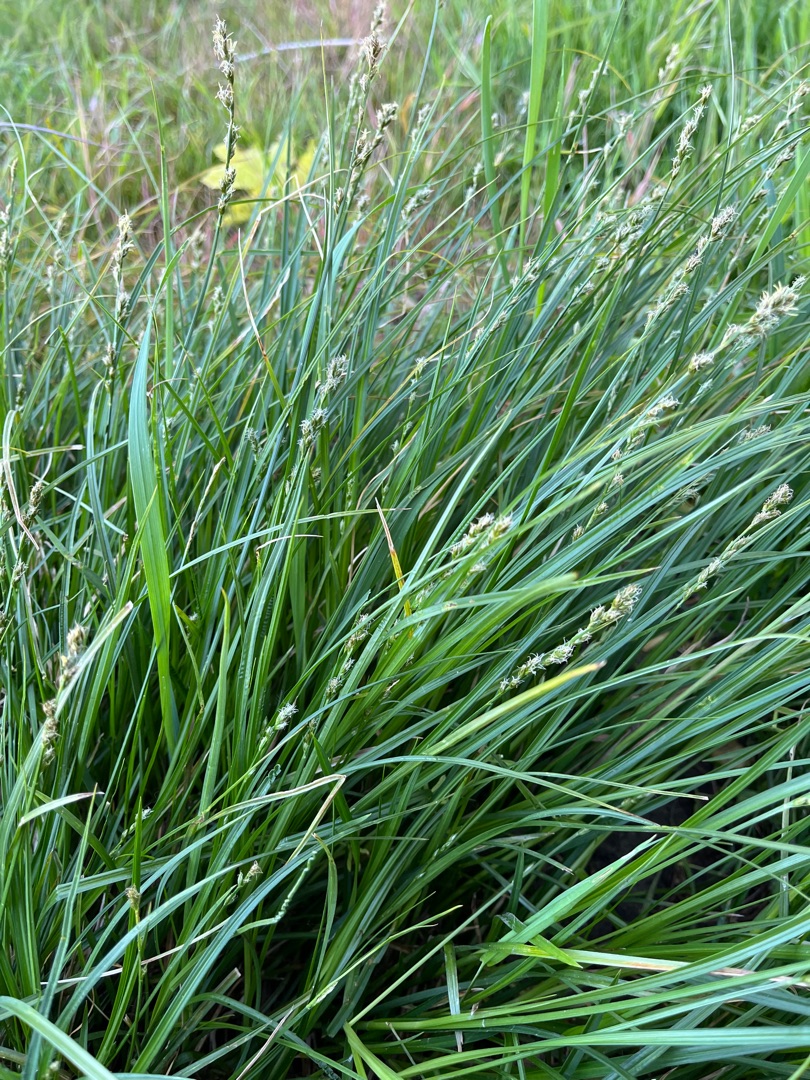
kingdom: Plantae
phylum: Tracheophyta
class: Liliopsida
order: Poales
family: Cyperaceae
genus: Carex
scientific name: Carex divulsa
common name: Mellembrudt star
